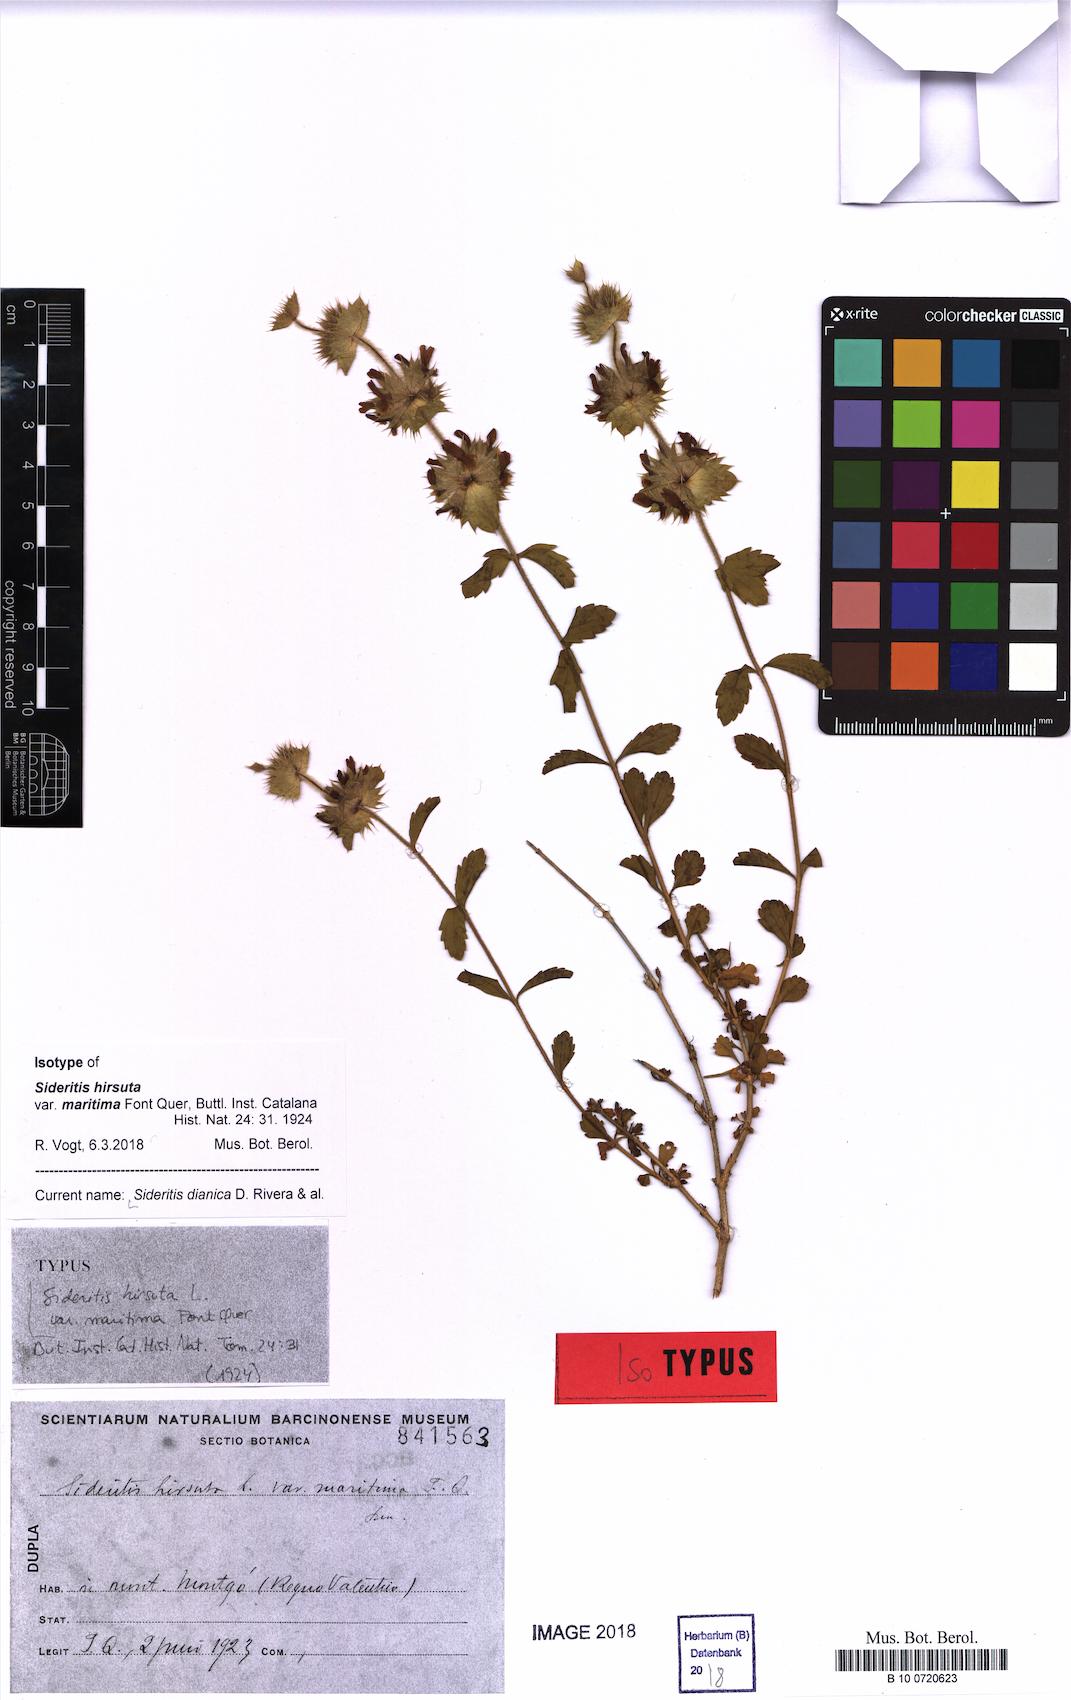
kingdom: Plantae
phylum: Tracheophyta
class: Magnoliopsida
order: Lamiales
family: Lamiaceae
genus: Sideritis
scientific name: Sideritis dianica
